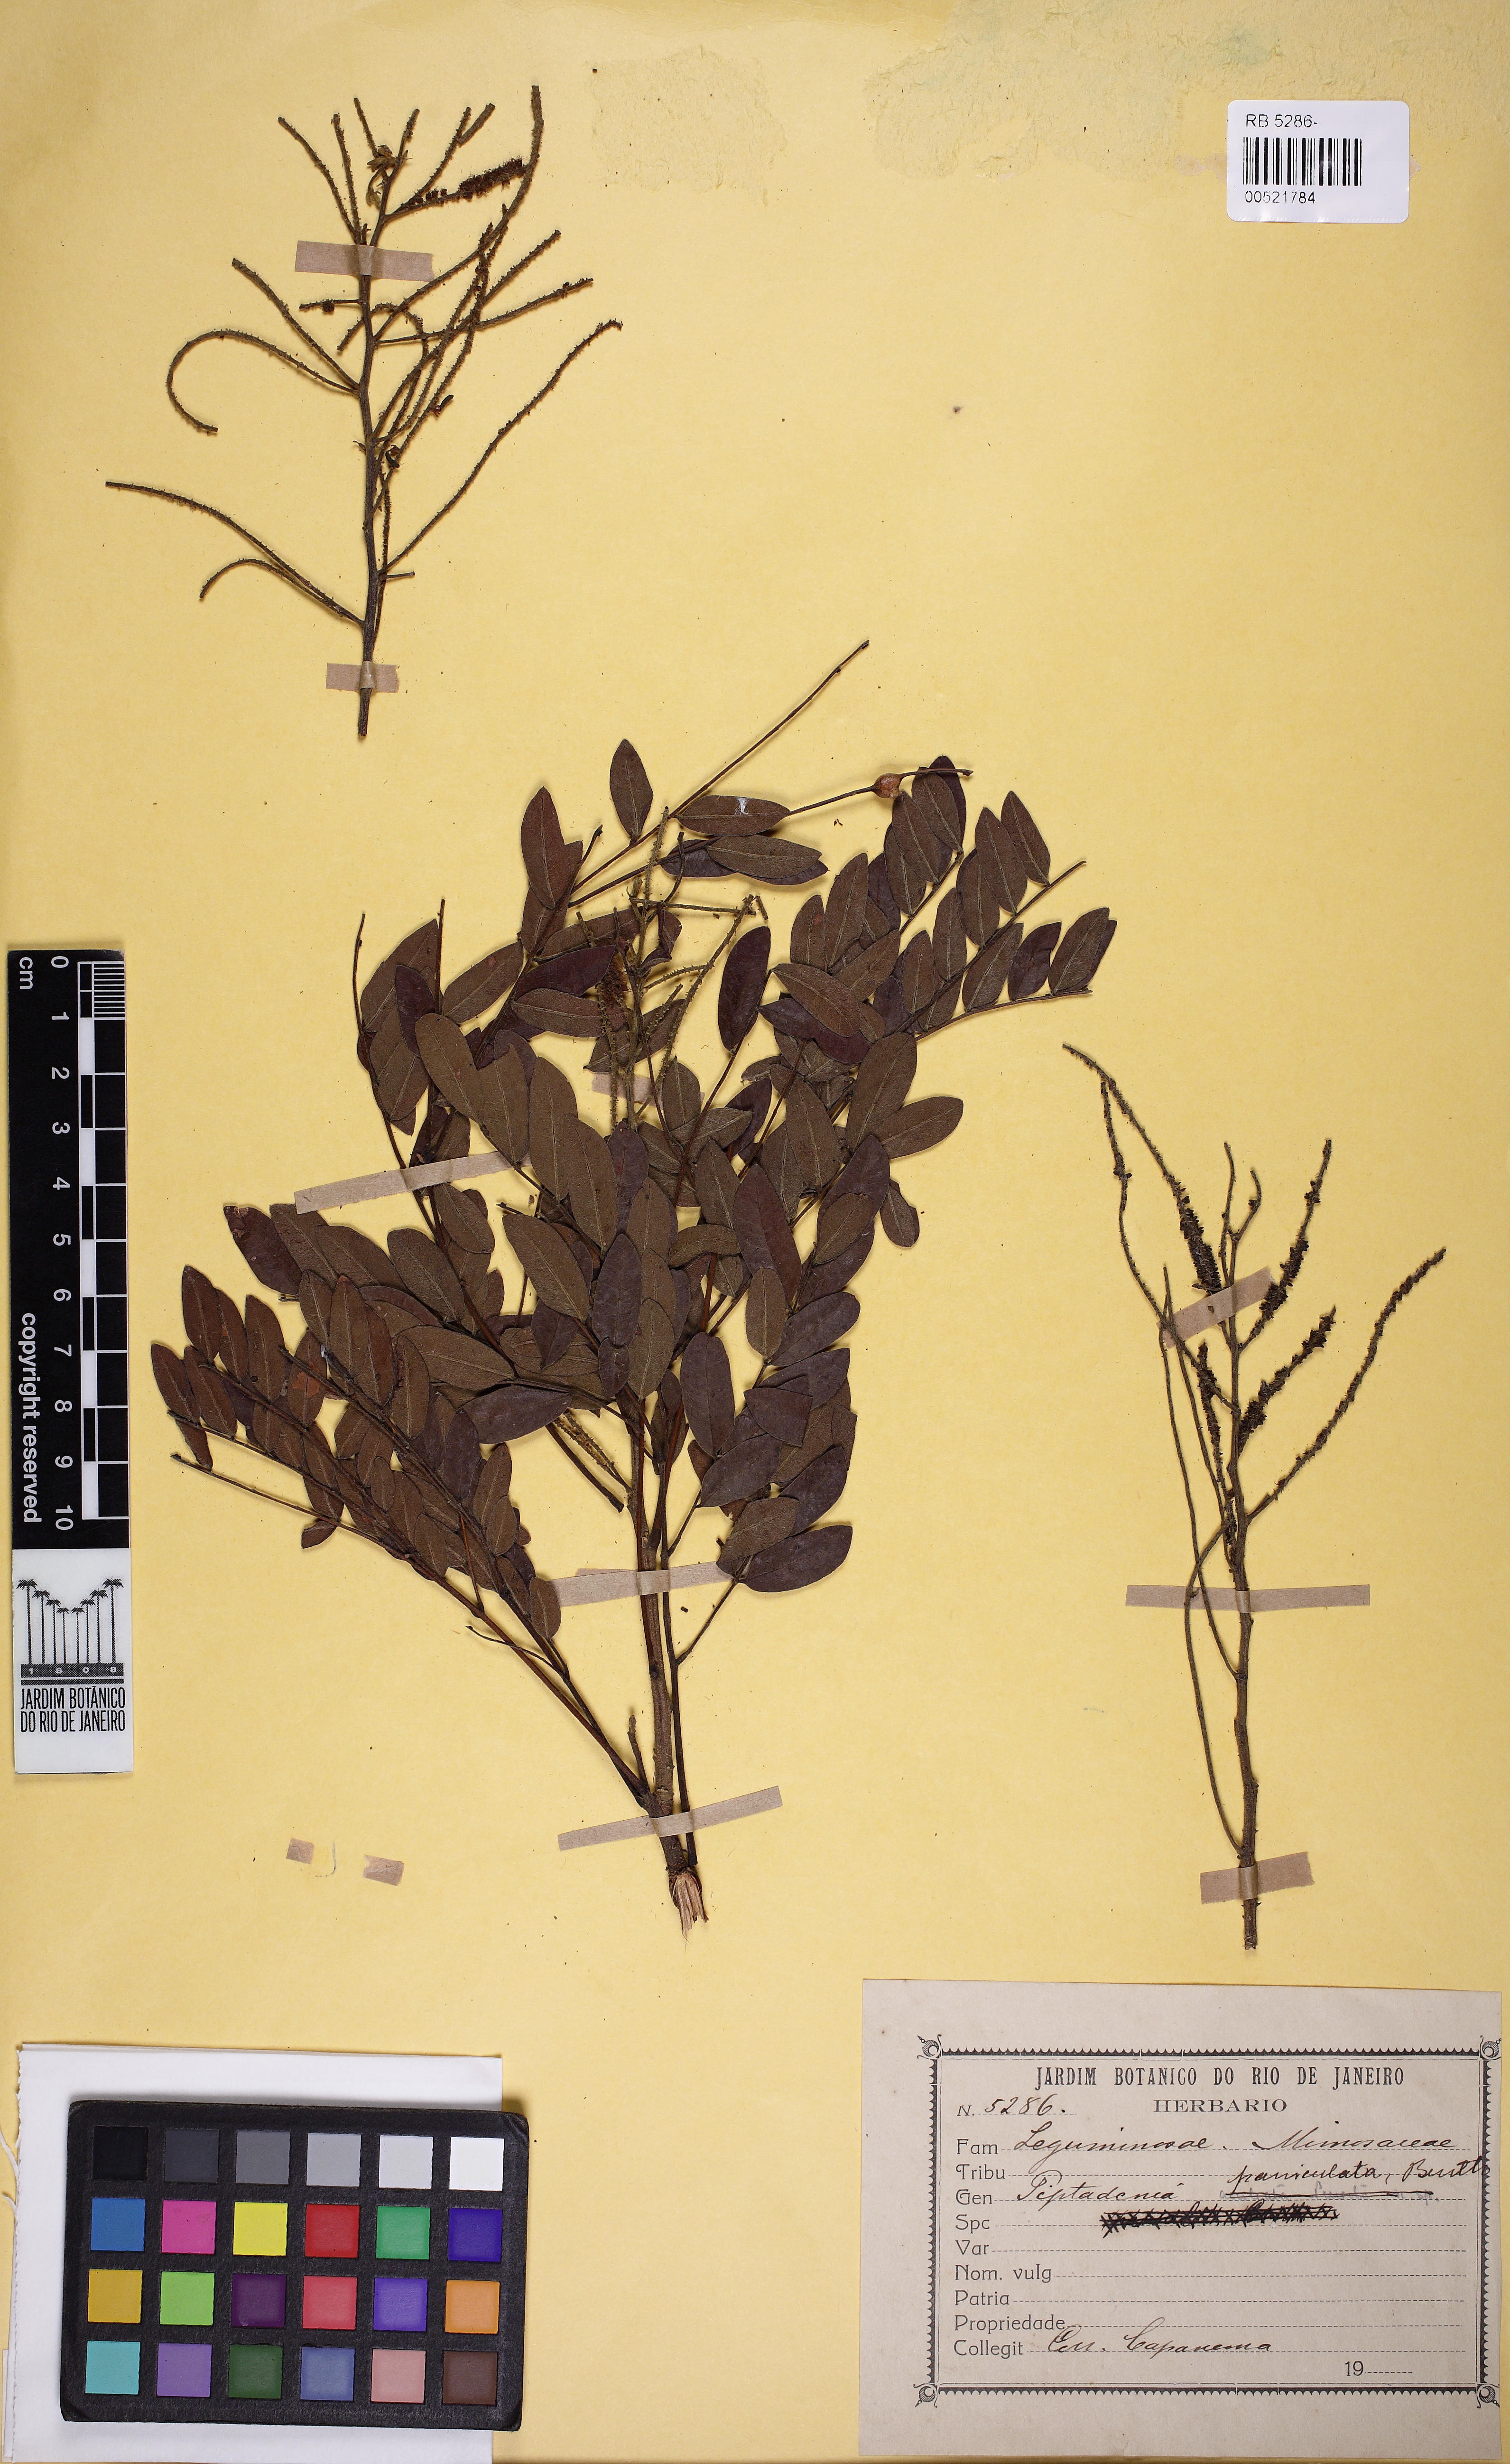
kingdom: Plantae
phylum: Tracheophyta
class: Magnoliopsida
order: Fabales
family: Fabaceae
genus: Piptadenia
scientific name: Piptadenia paniculata
